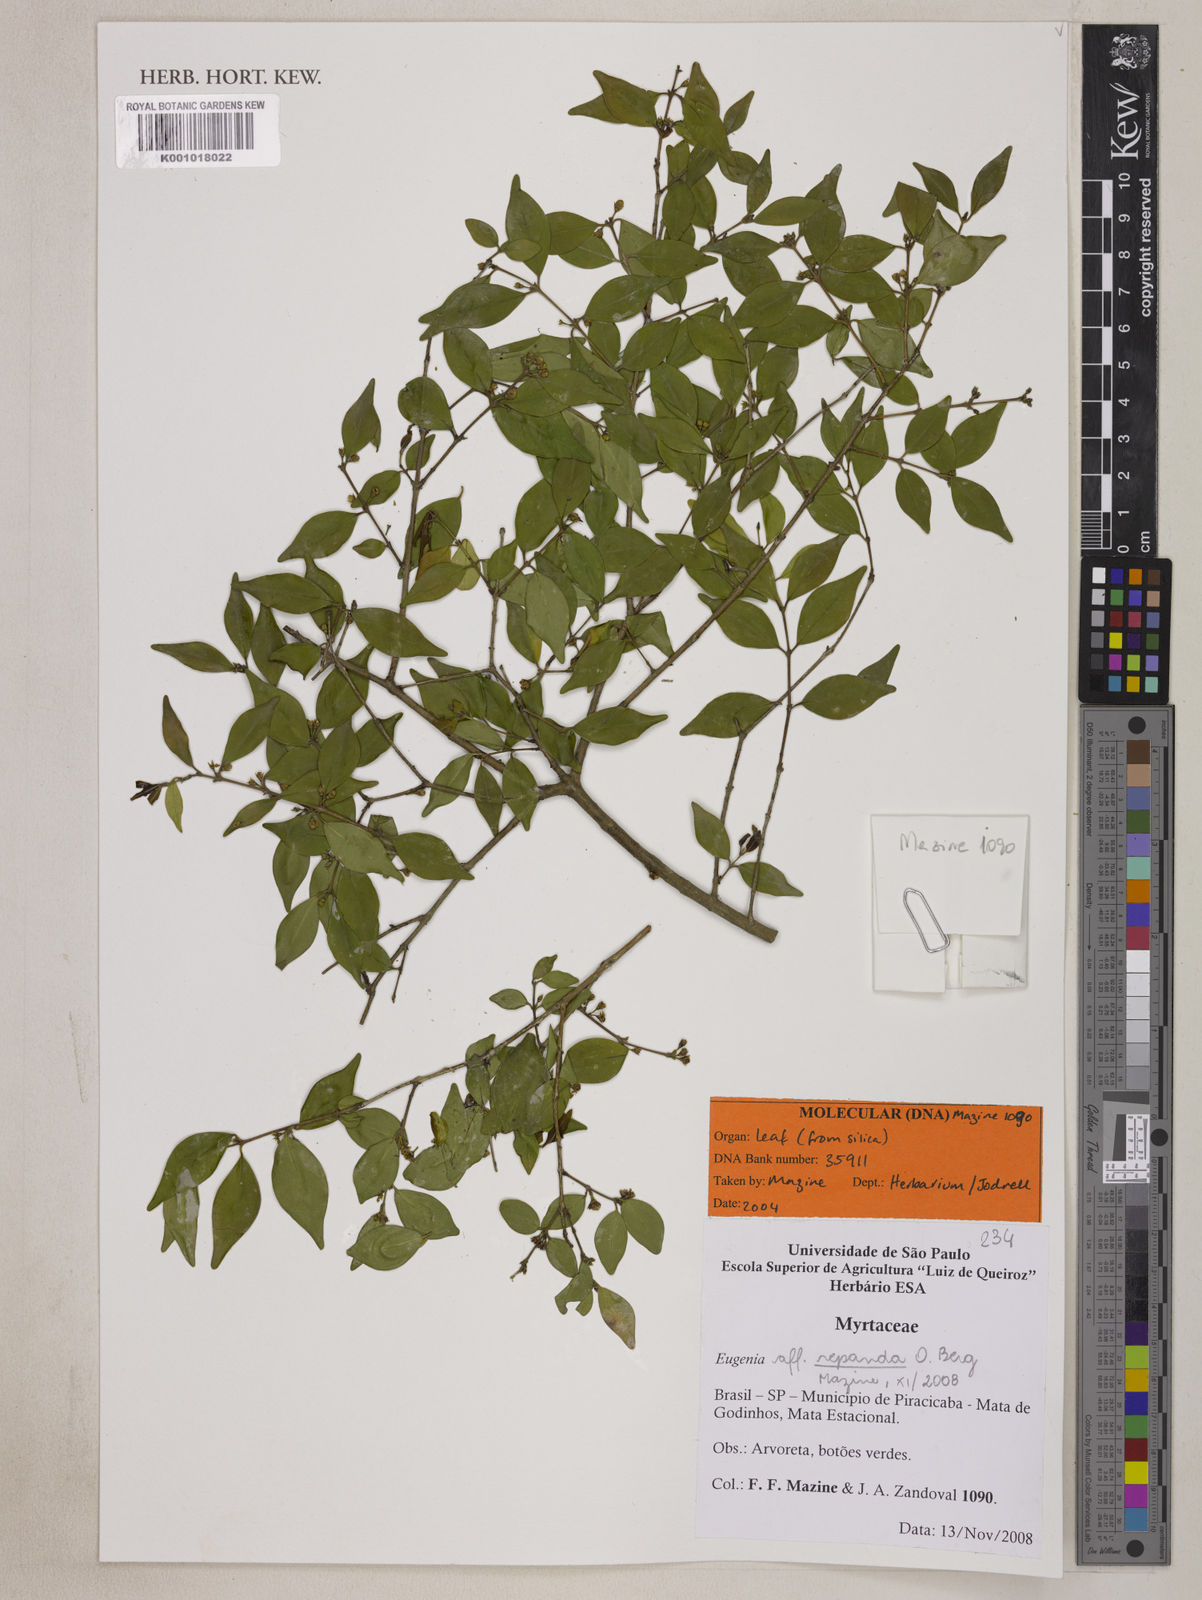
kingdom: Plantae
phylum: Tracheophyta
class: Magnoliopsida
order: Myrtales
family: Myrtaceae
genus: Eugenia
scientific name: Eugenia repanda
